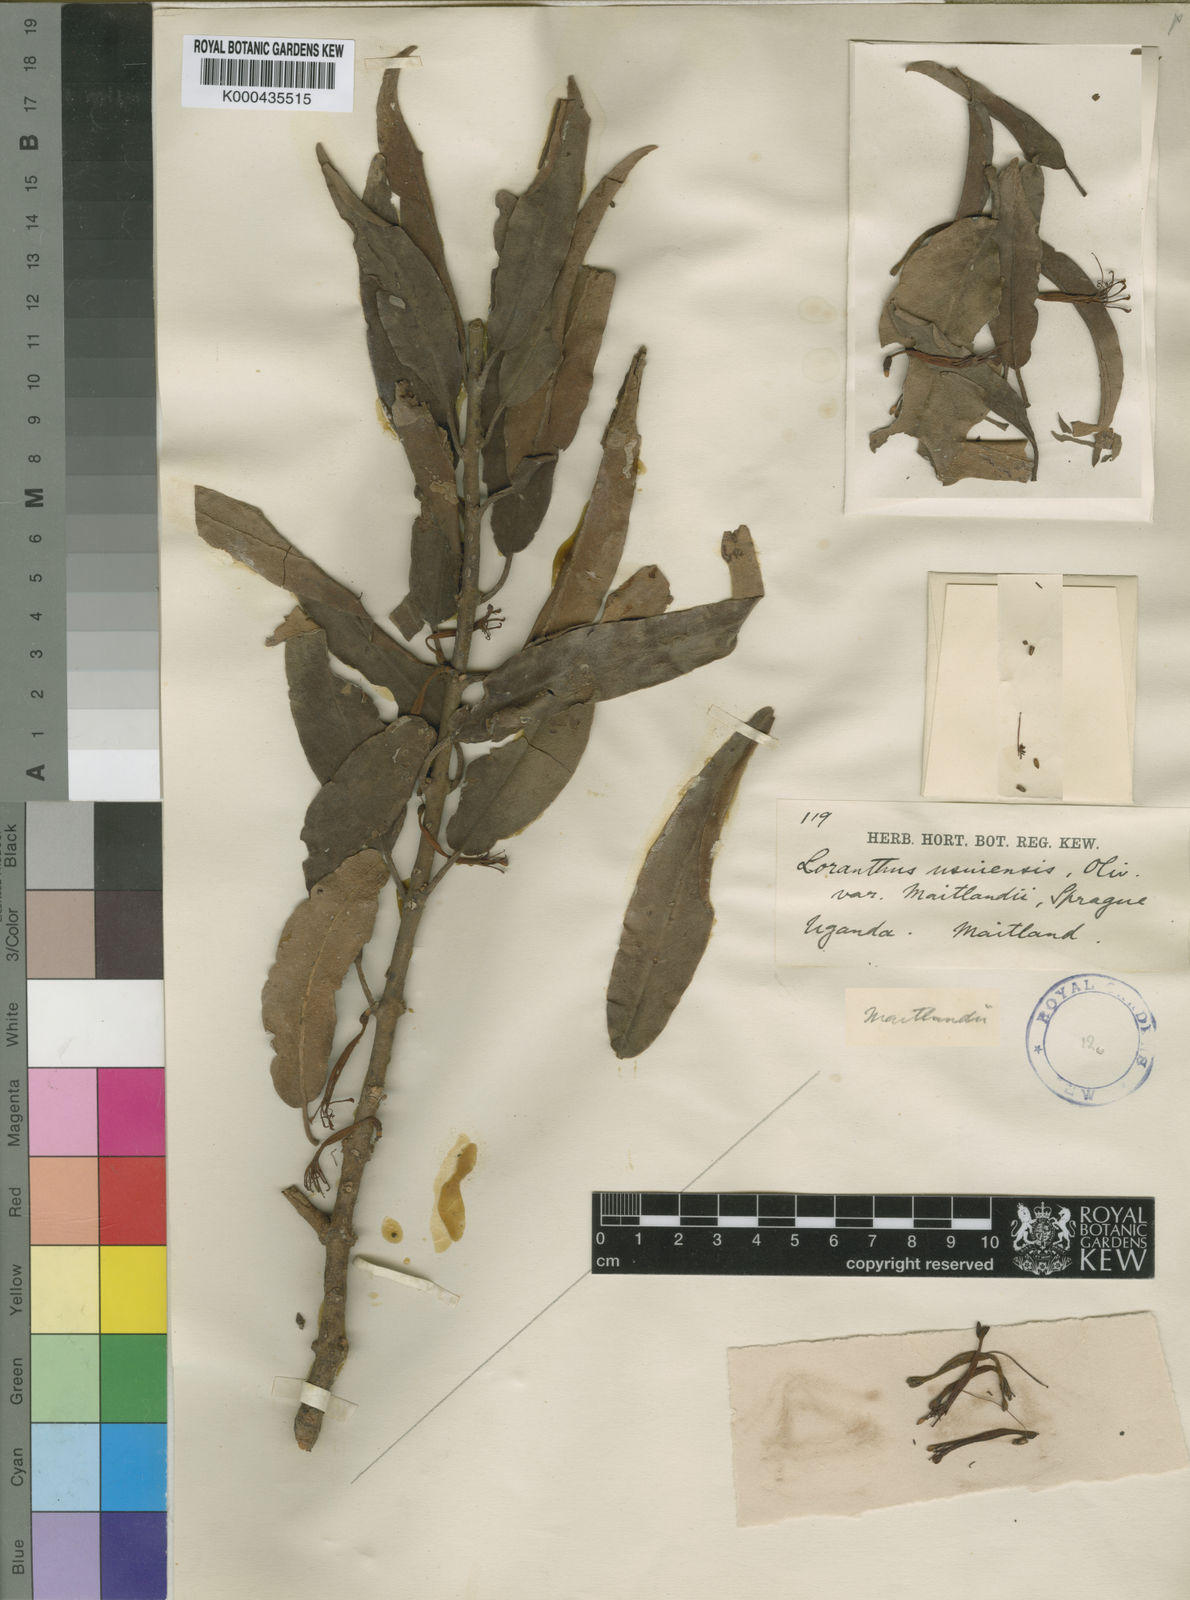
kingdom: Plantae
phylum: Tracheophyta
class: Magnoliopsida
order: Santalales
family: Loranthaceae
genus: Phragmanthera
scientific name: Phragmanthera usuiensis
